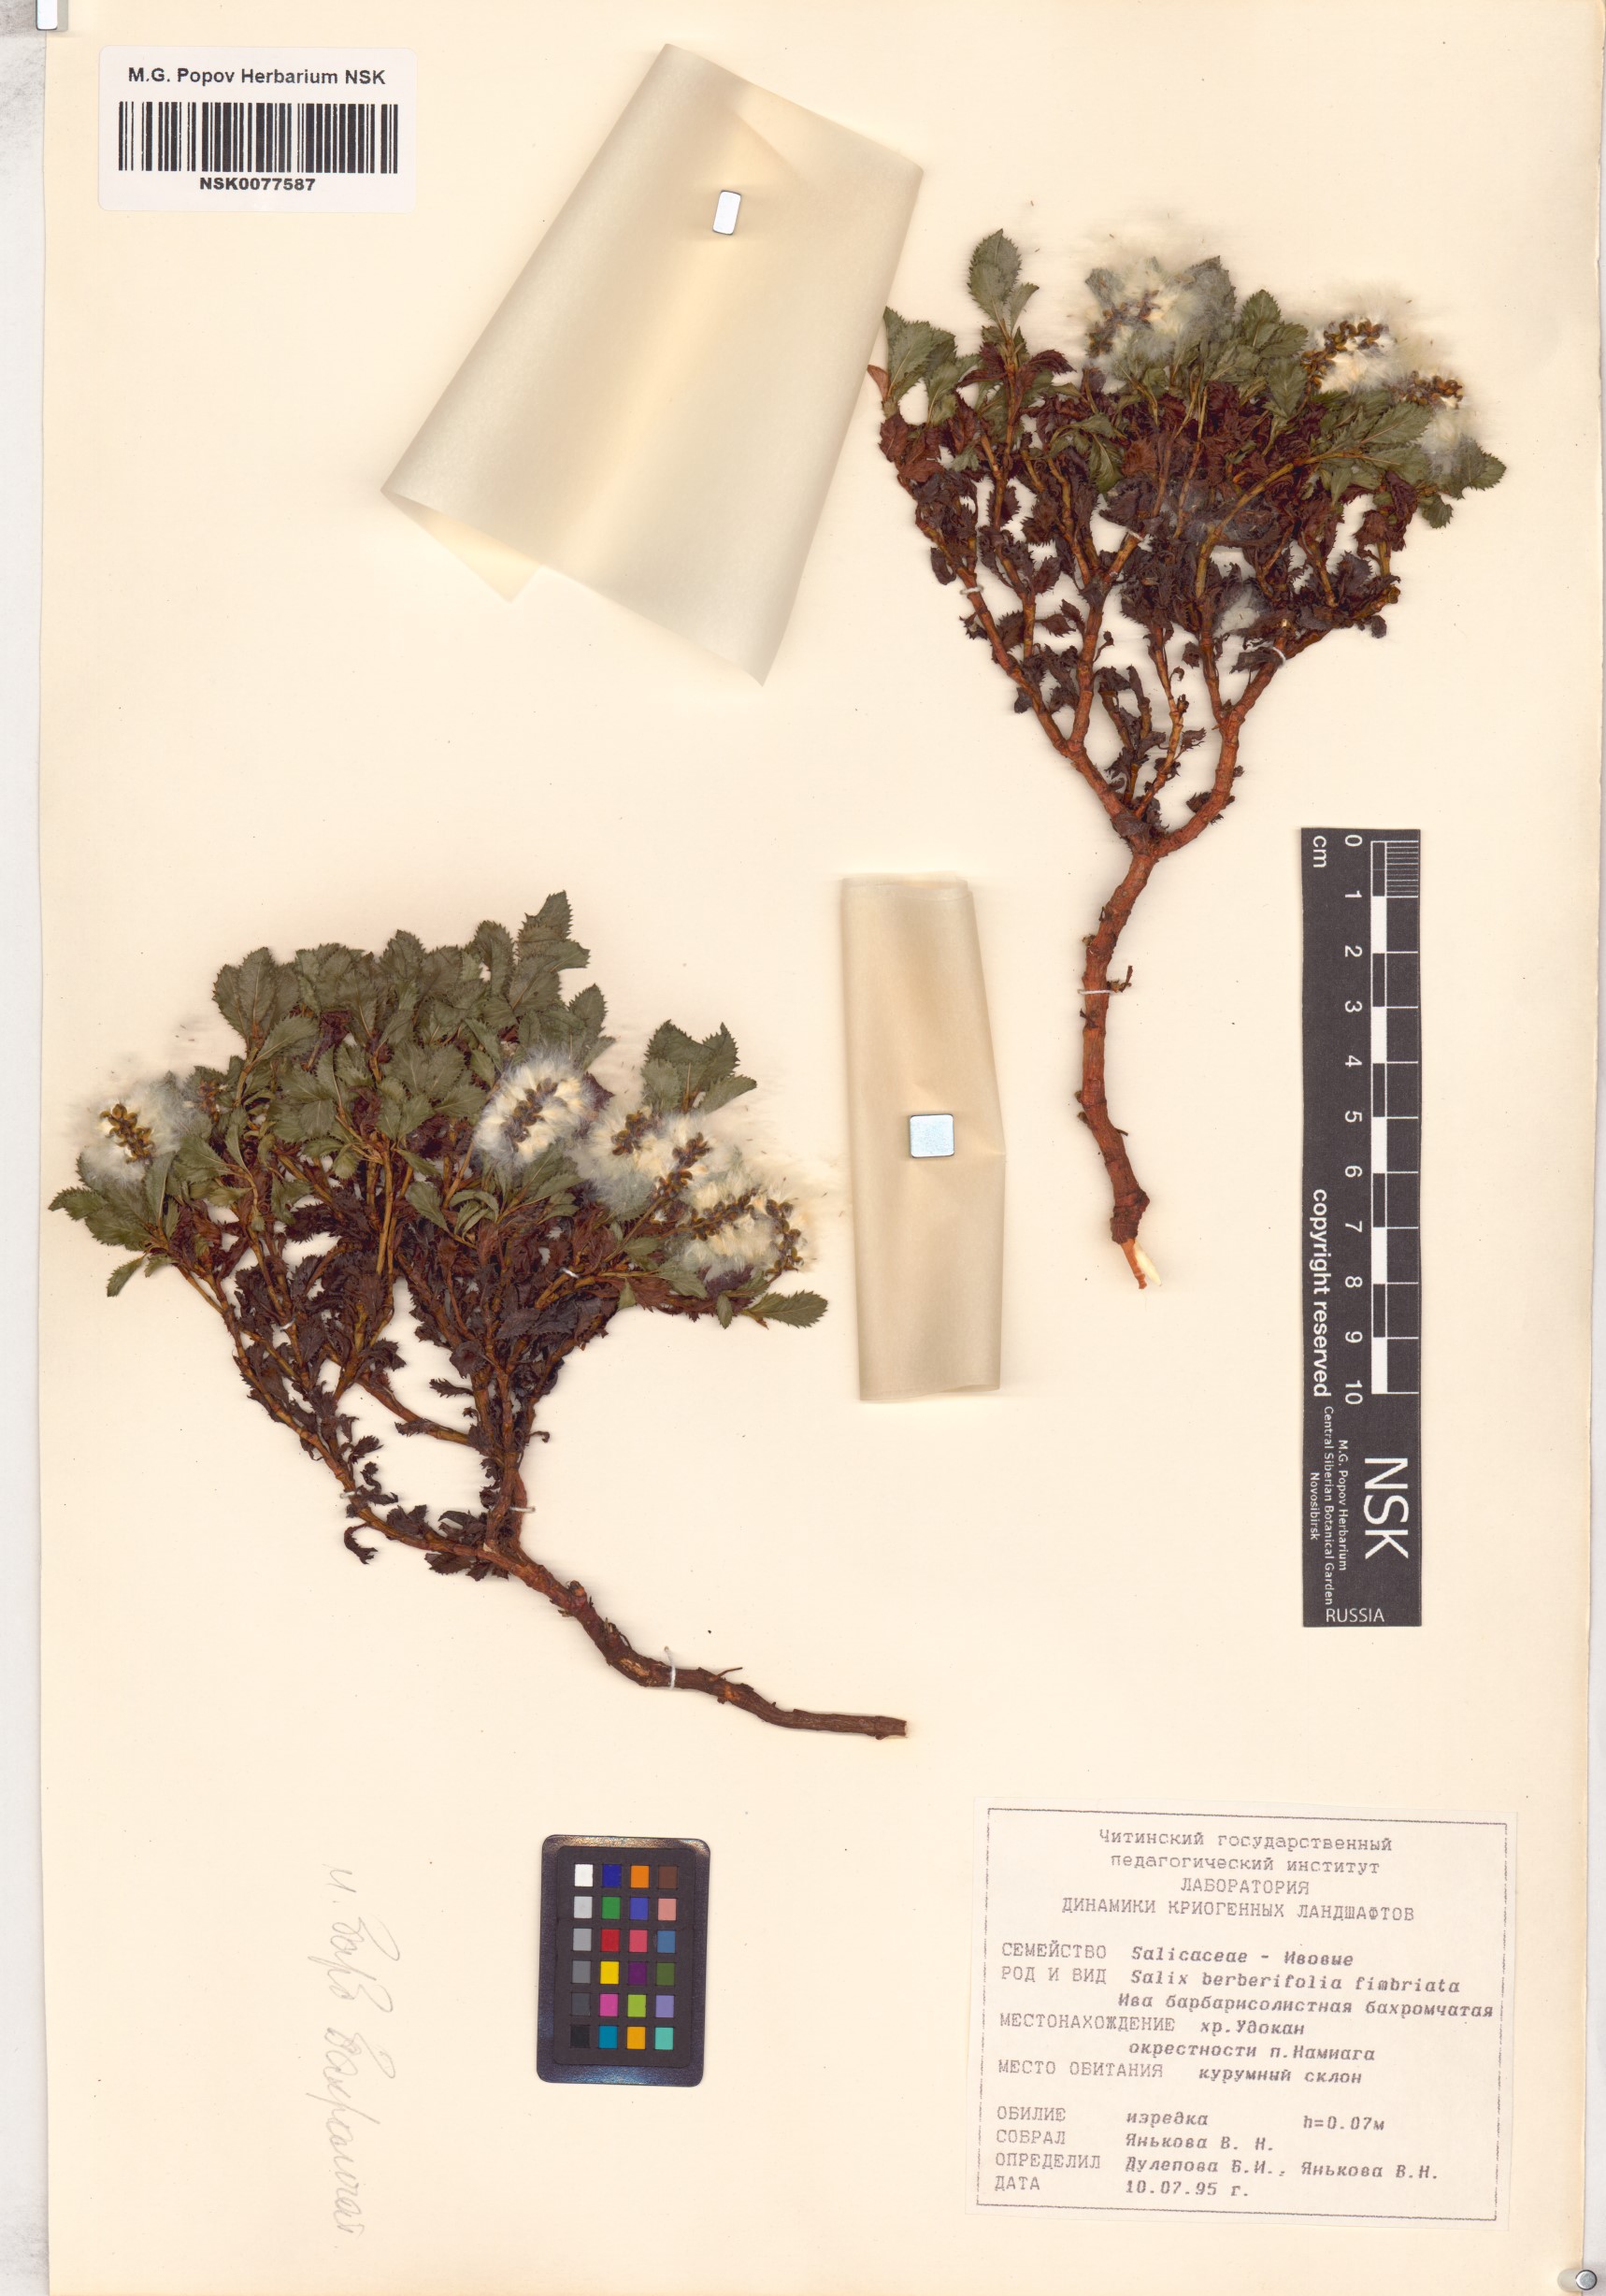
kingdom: Plantae
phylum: Tracheophyta
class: Magnoliopsida
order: Malpighiales
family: Salicaceae
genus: Salix
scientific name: Salix berberifolia
